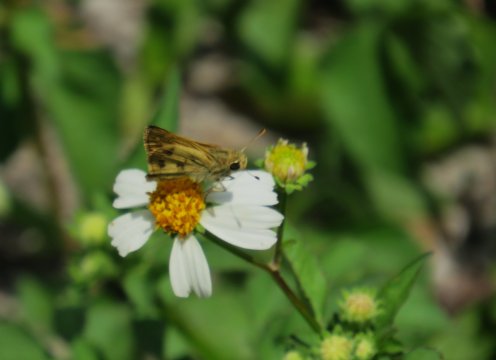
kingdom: Animalia
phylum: Arthropoda
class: Insecta
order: Lepidoptera
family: Hesperiidae
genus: Polites
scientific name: Polites vibex
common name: Whirlabout
